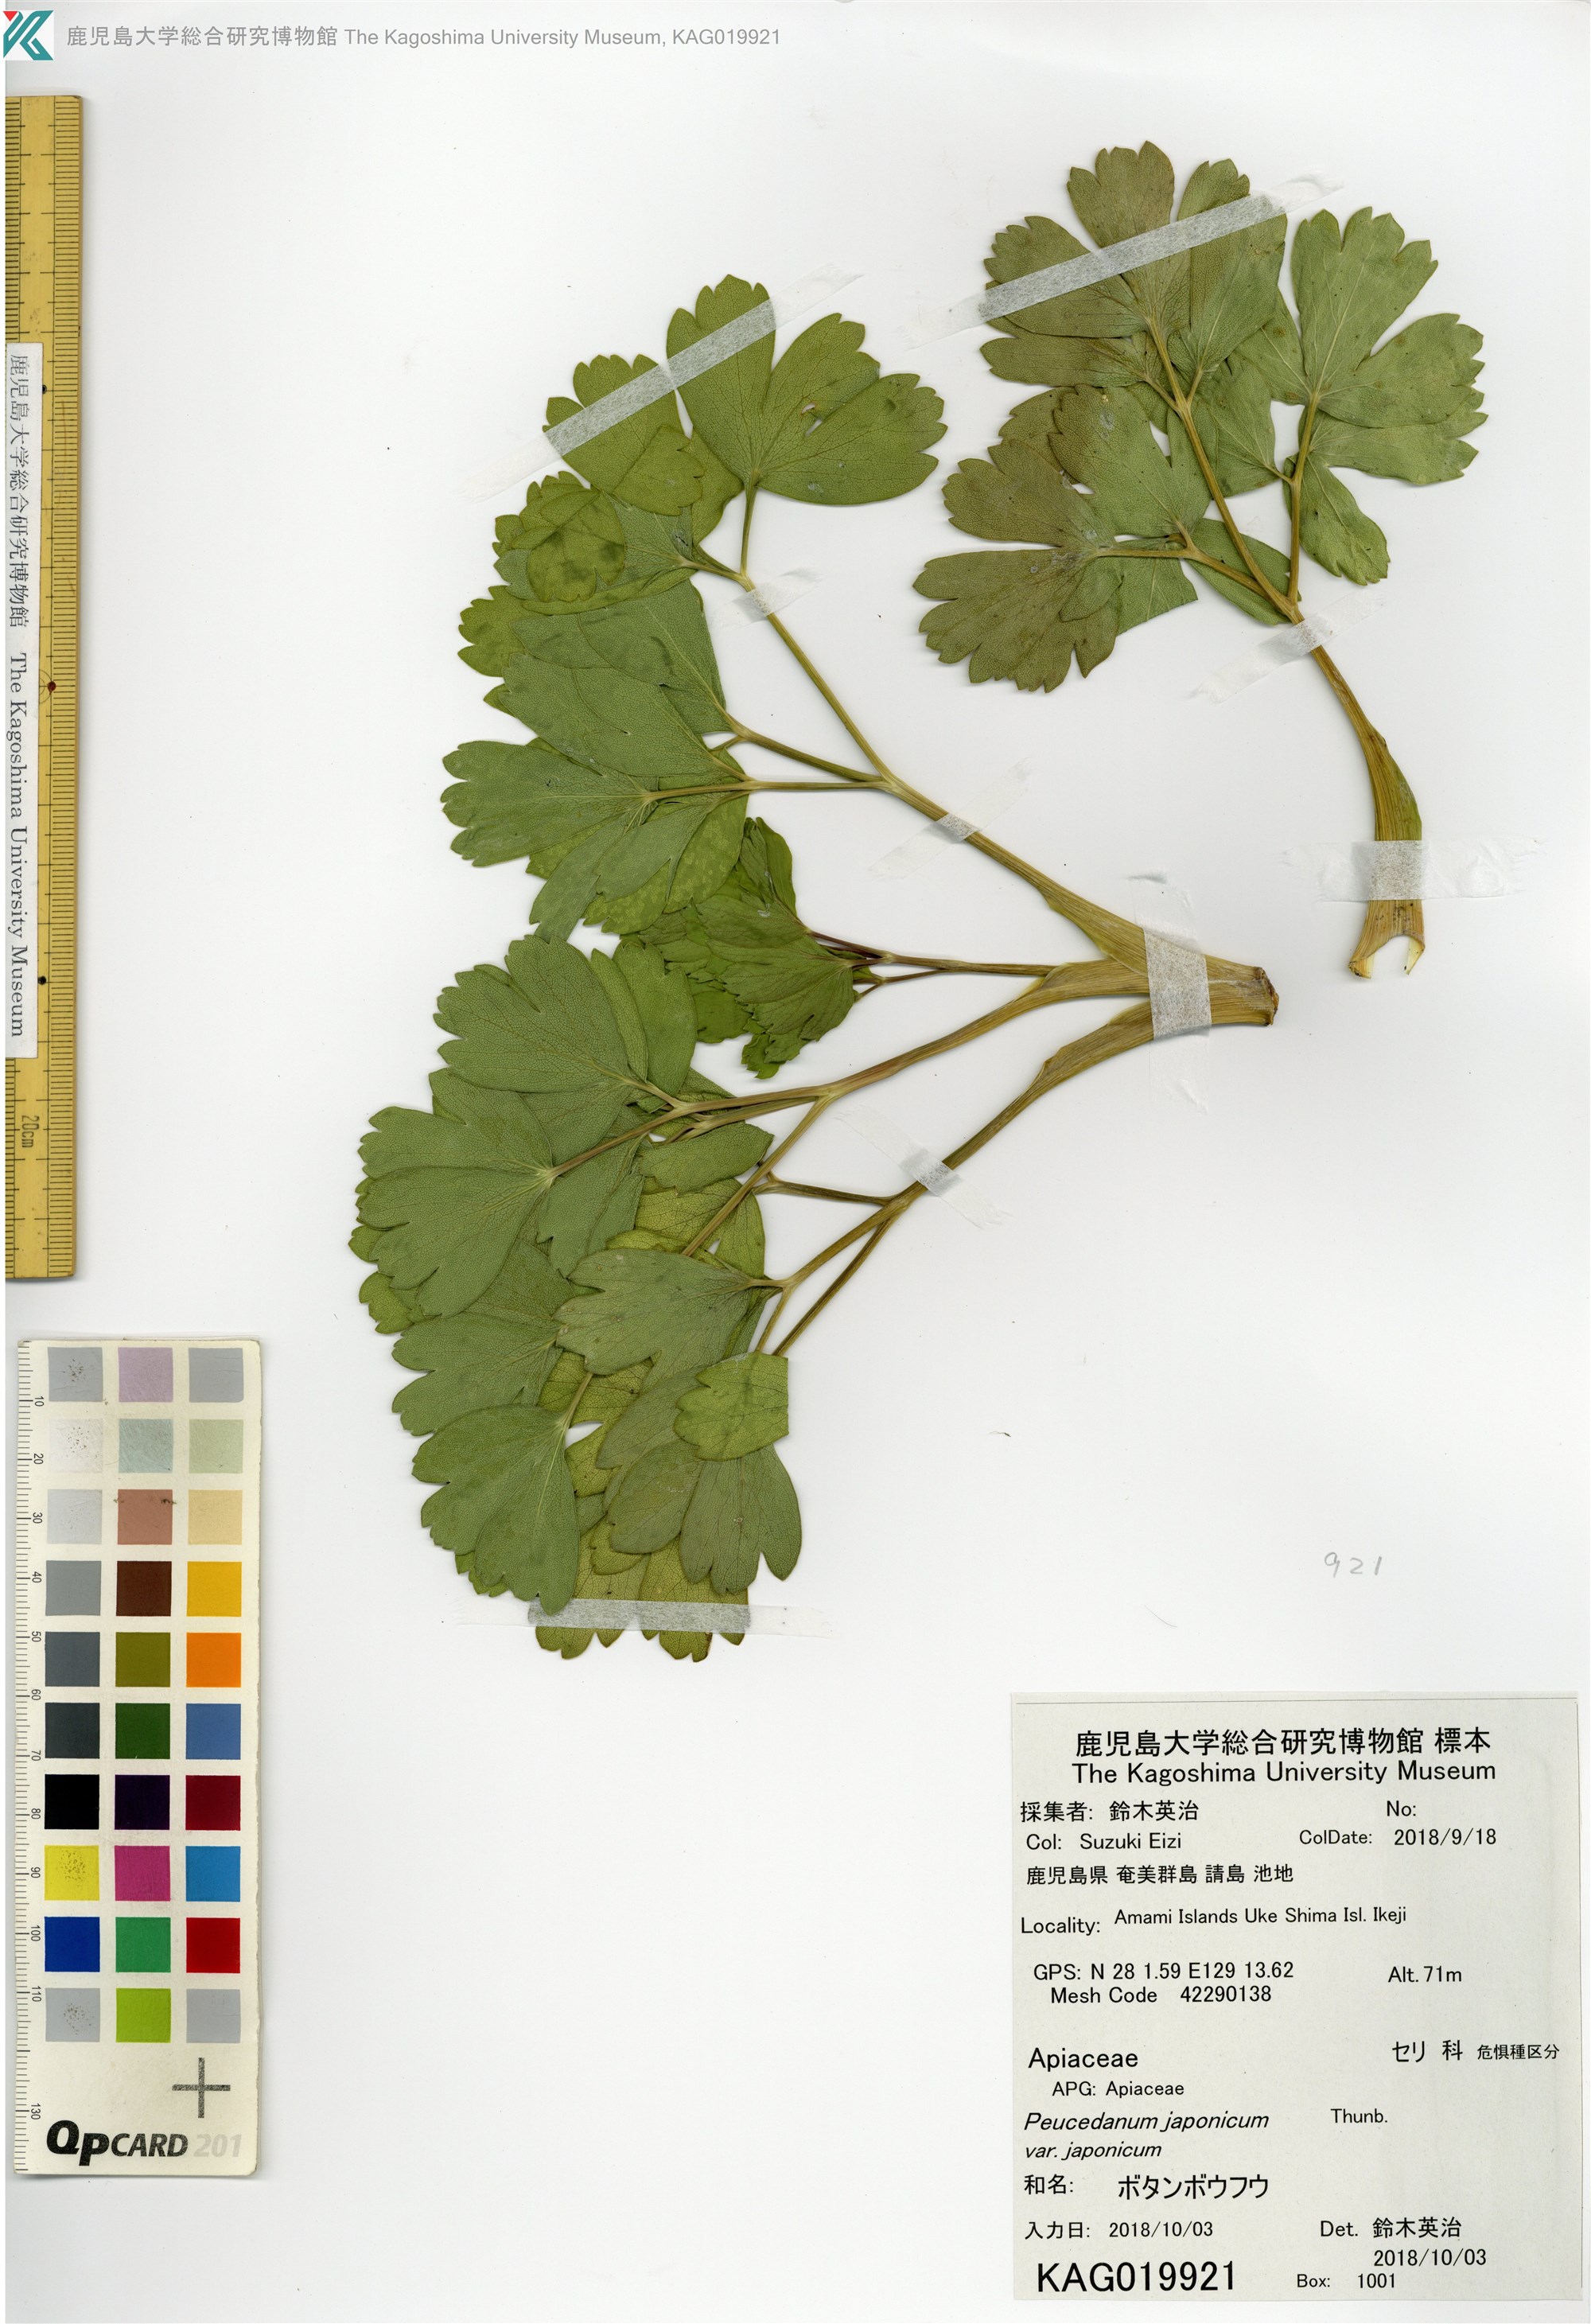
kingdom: Plantae
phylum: Tracheophyta
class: Magnoliopsida
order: Apiales
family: Apiaceae
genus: Peucedanum
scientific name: Peucedanum japonicum
